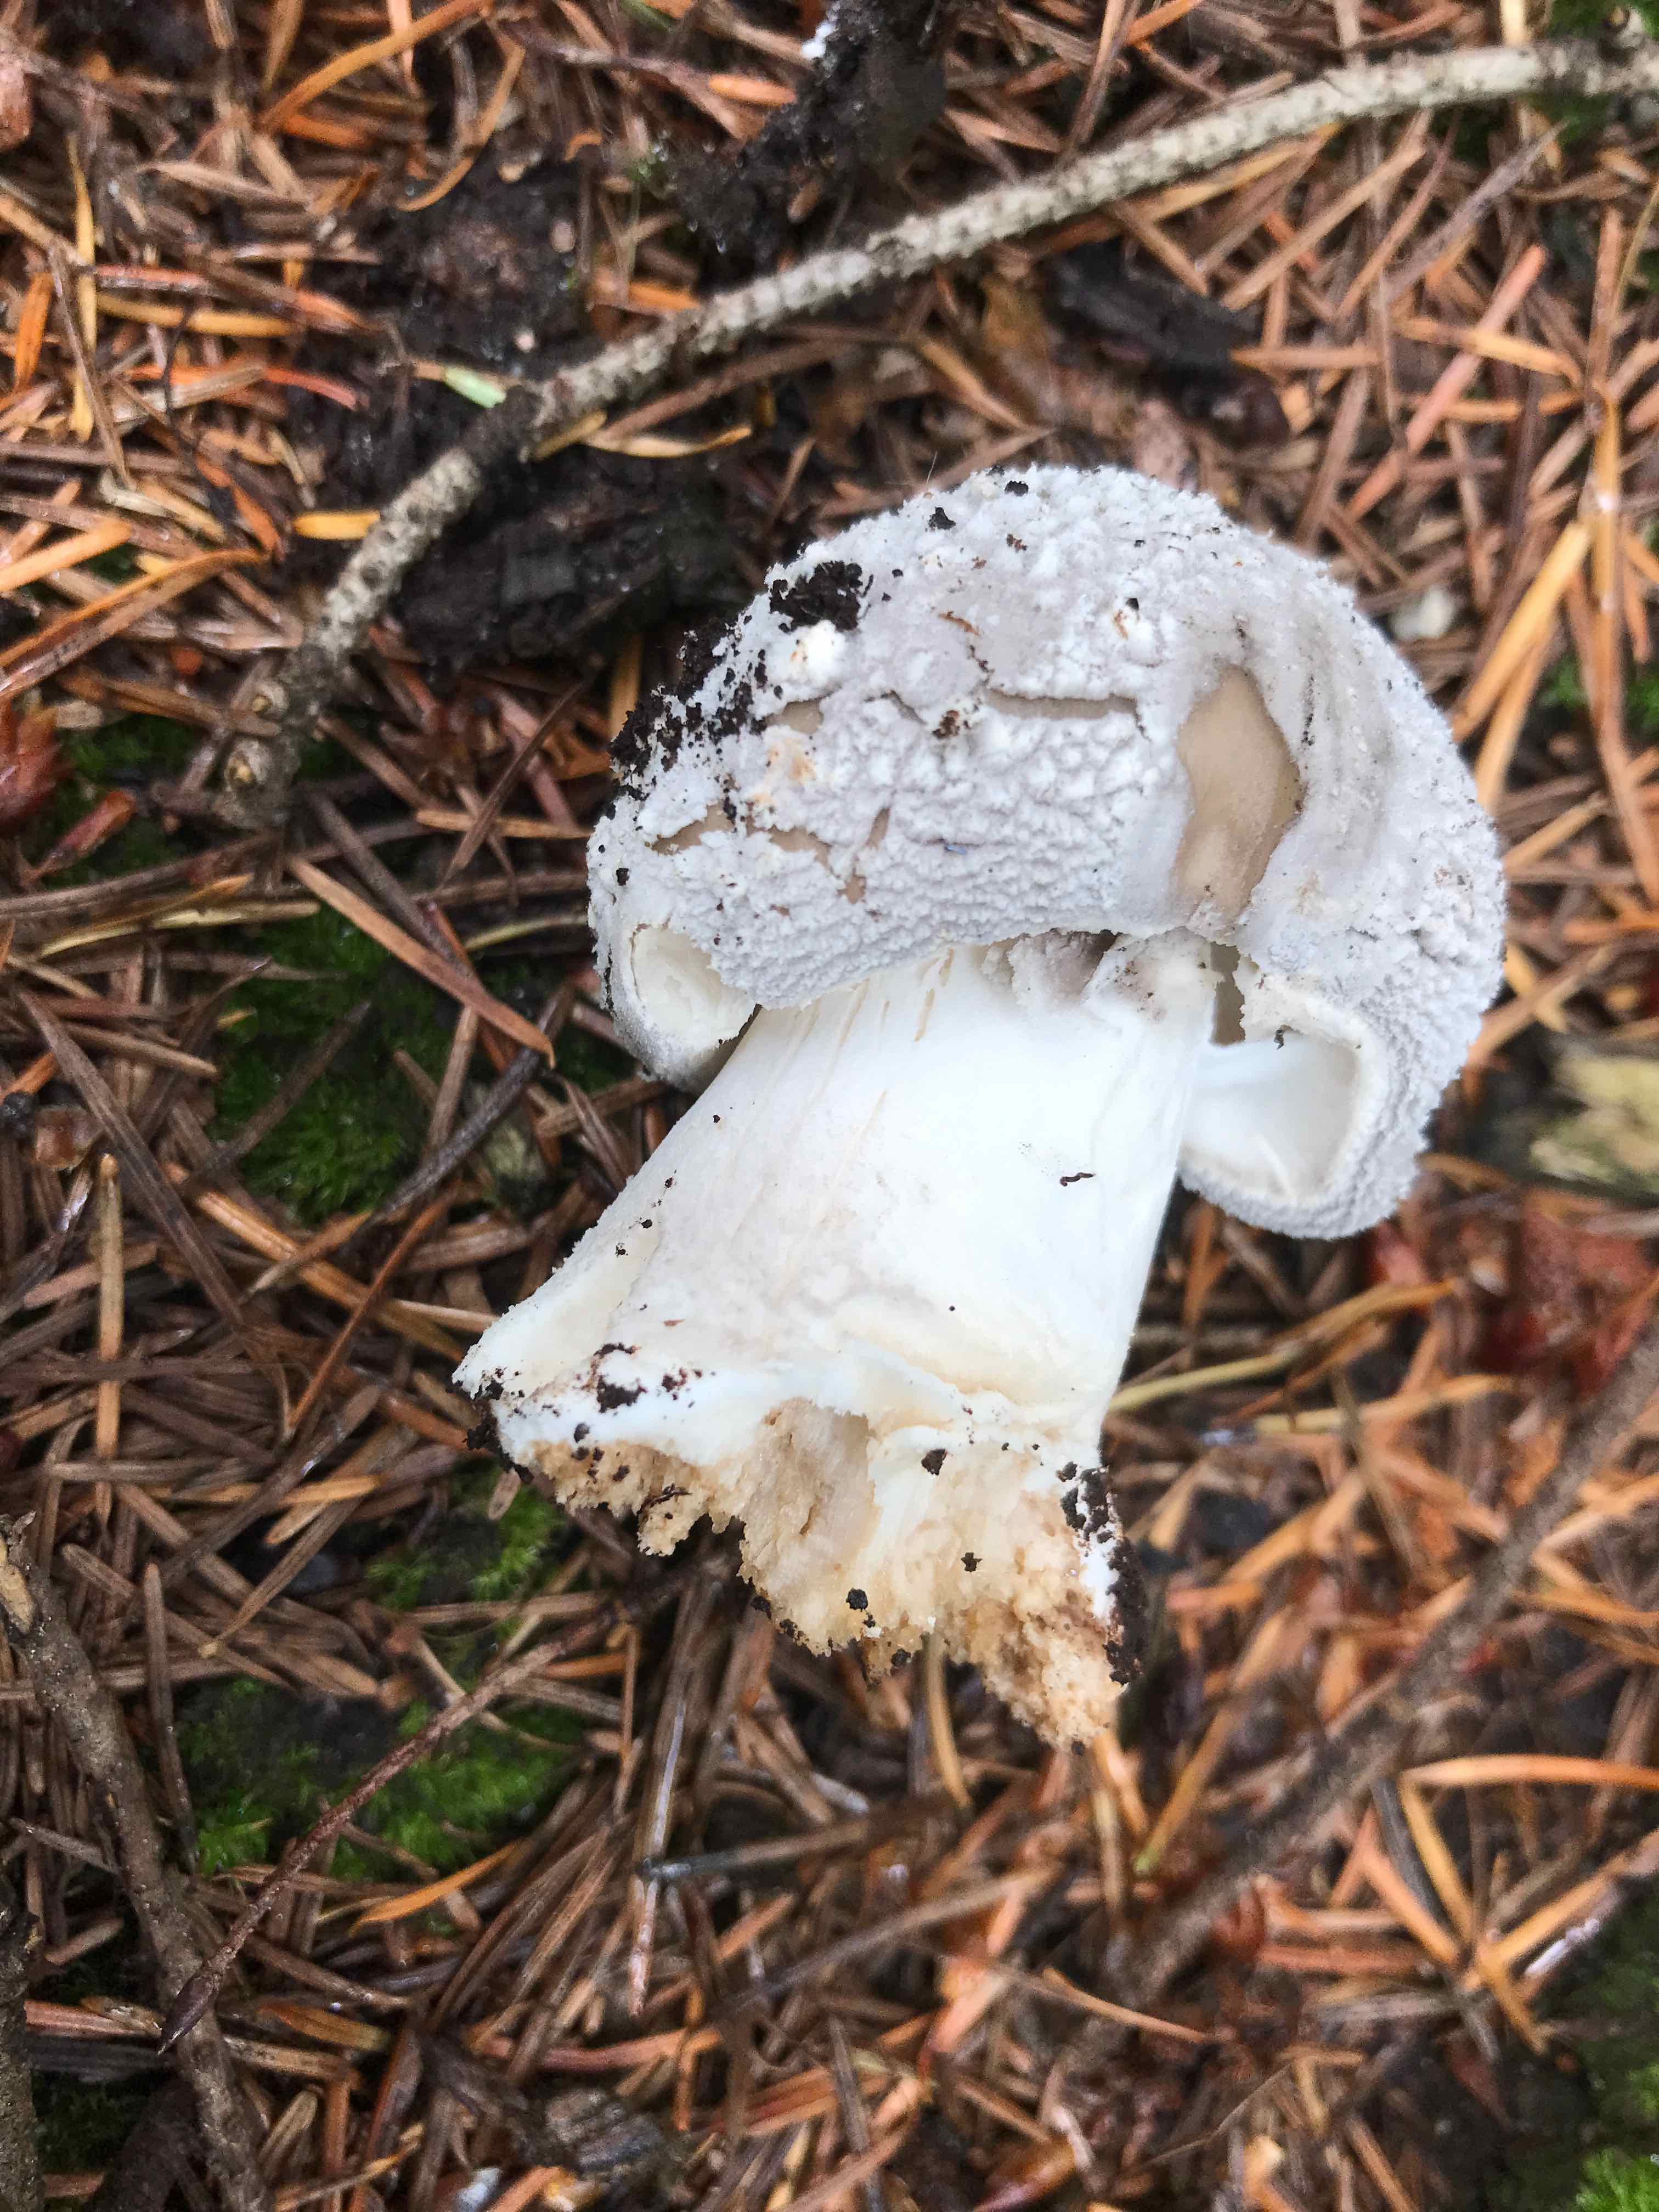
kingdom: Fungi
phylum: Basidiomycota
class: Agaricomycetes
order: Agaricales
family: Amanitaceae
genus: Amanita
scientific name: Amanita
